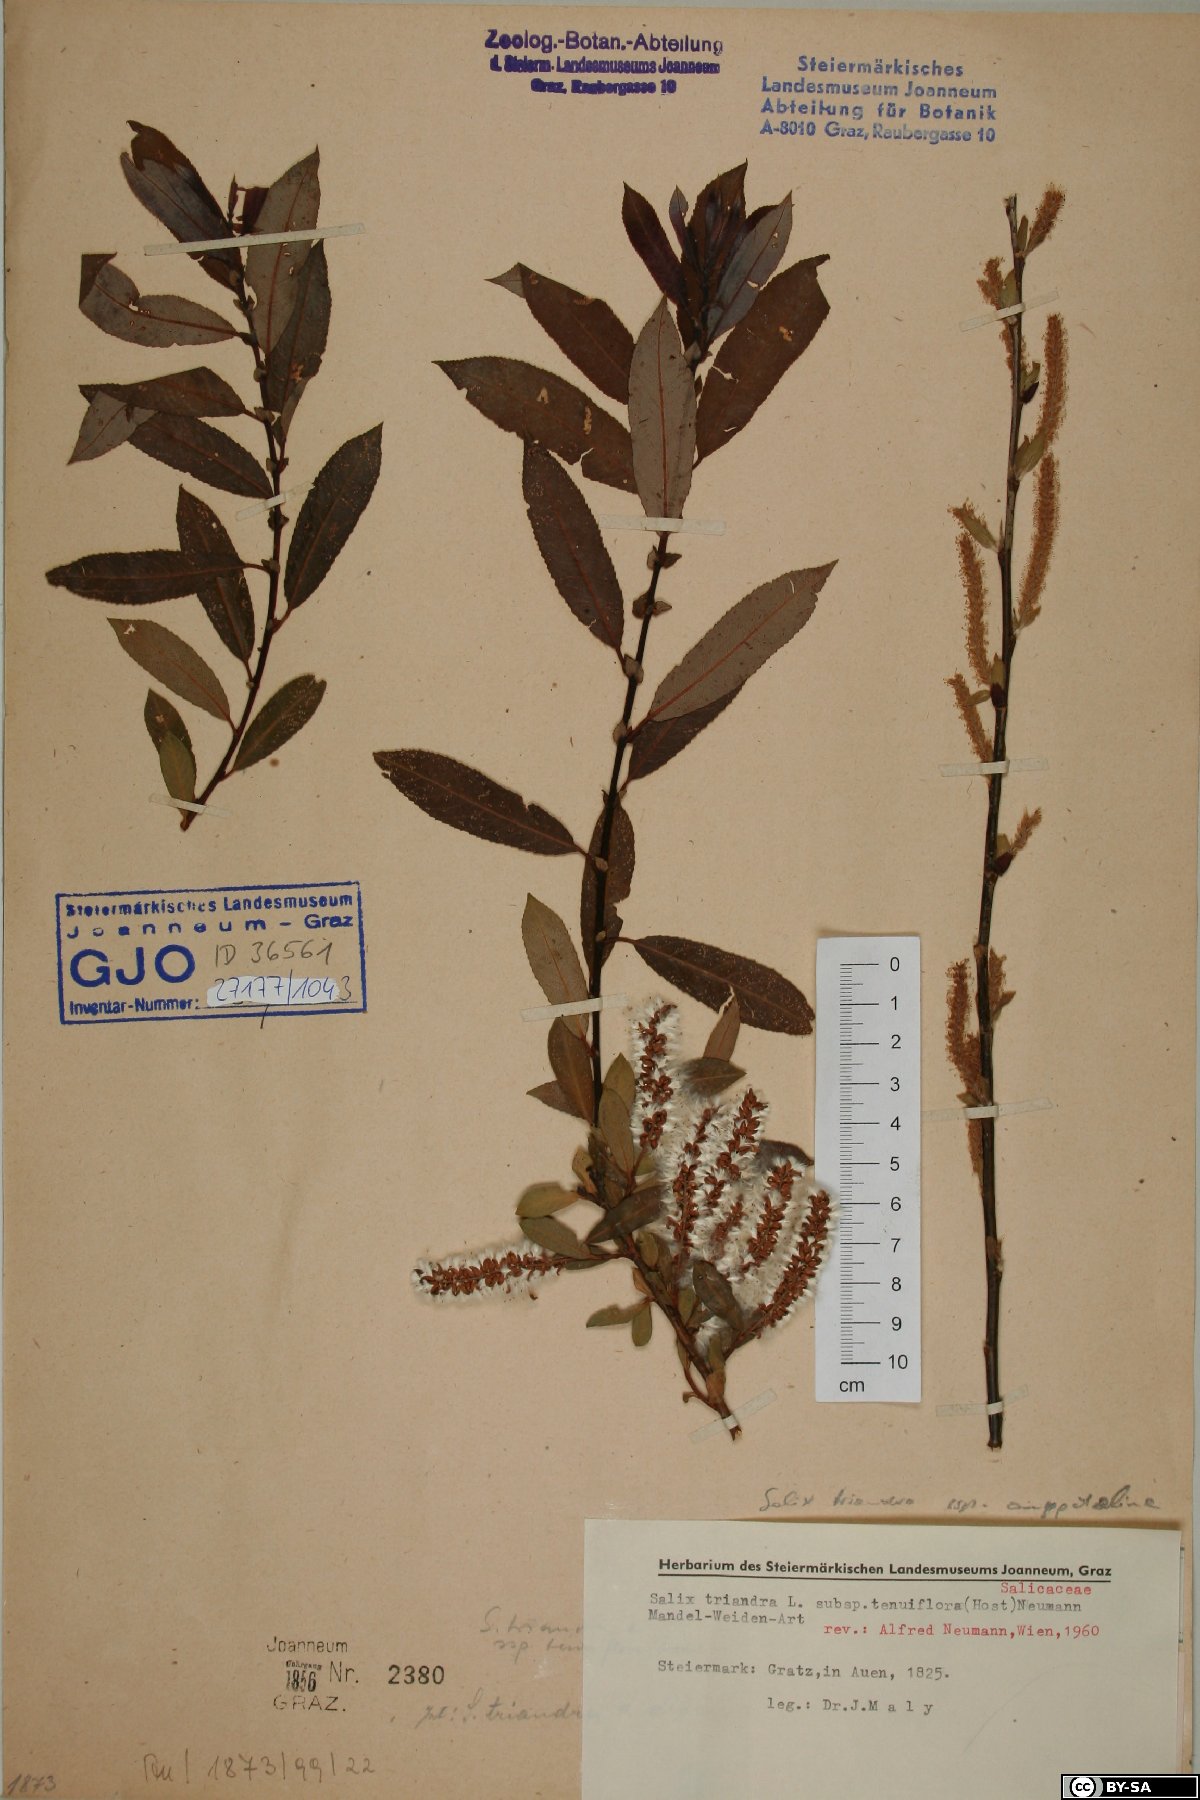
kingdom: Plantae
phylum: Tracheophyta
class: Magnoliopsida
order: Malpighiales
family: Salicaceae
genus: Salix
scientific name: Salix triandra
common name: Almond willow
